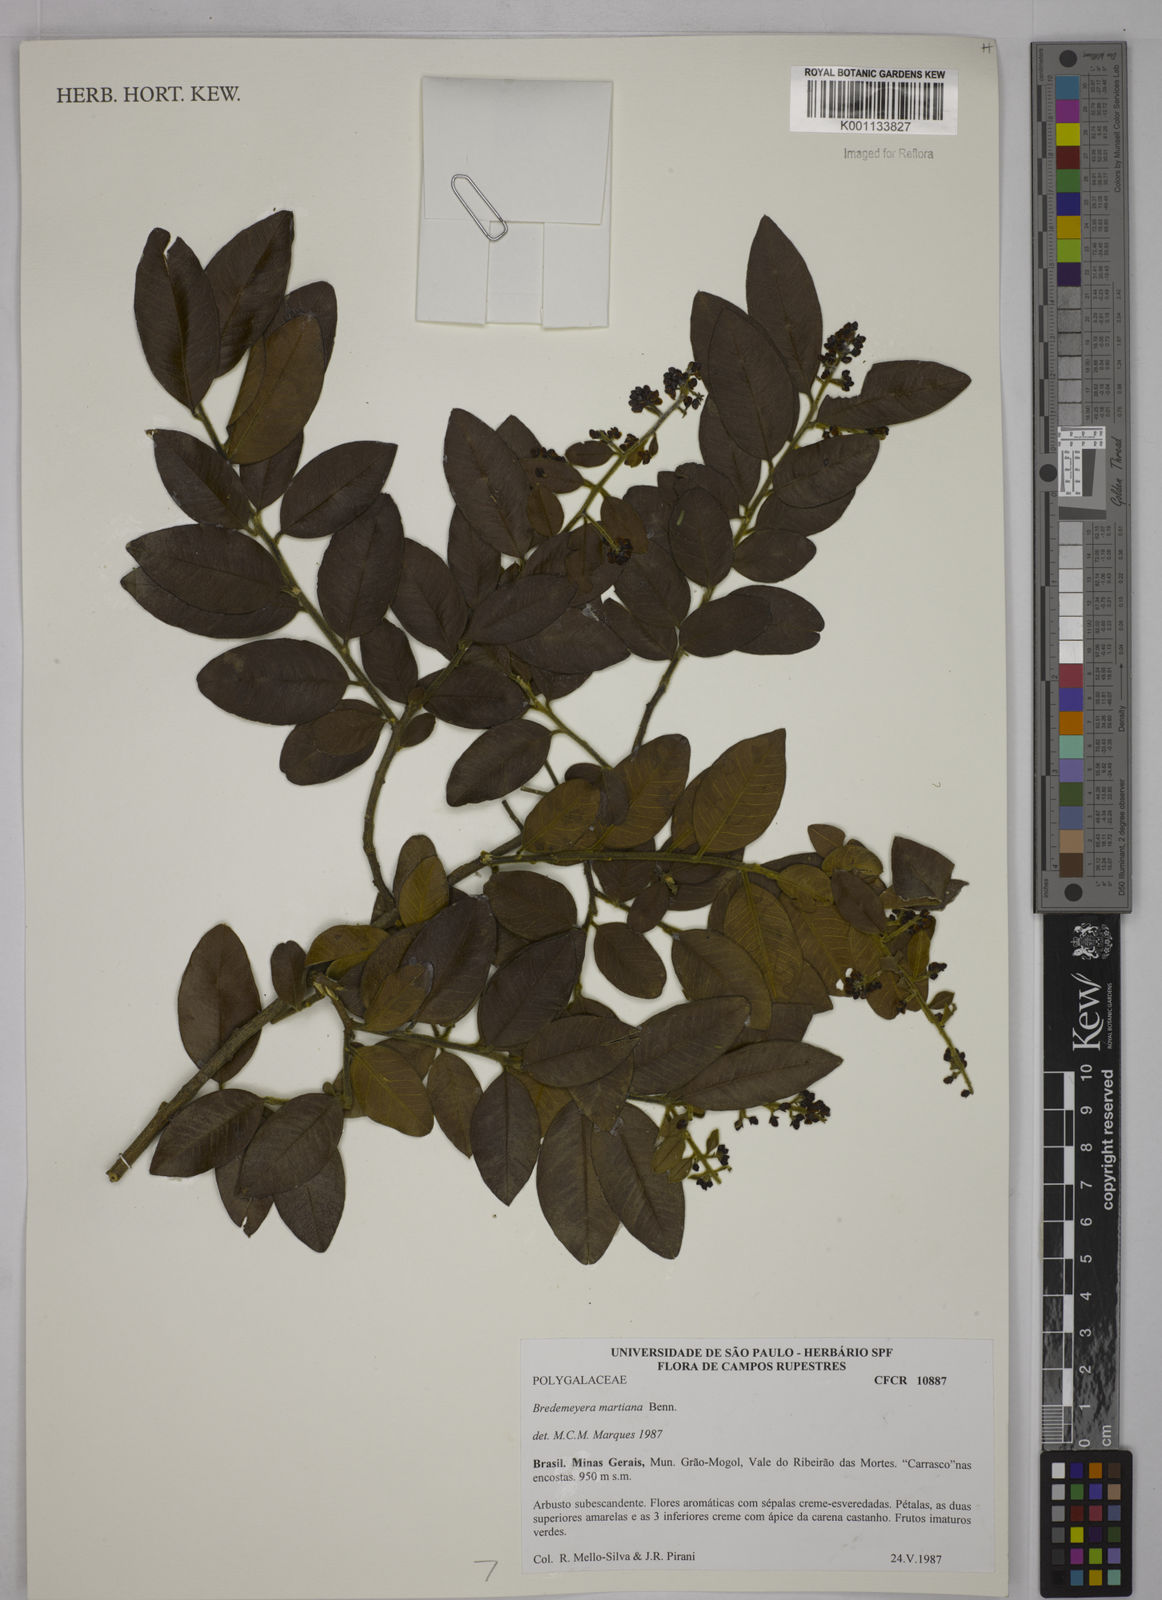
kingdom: Plantae
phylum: Tracheophyta
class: Magnoliopsida
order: Fabales
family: Polygalaceae
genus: Bredemeyera
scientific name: Bredemeyera martiana
